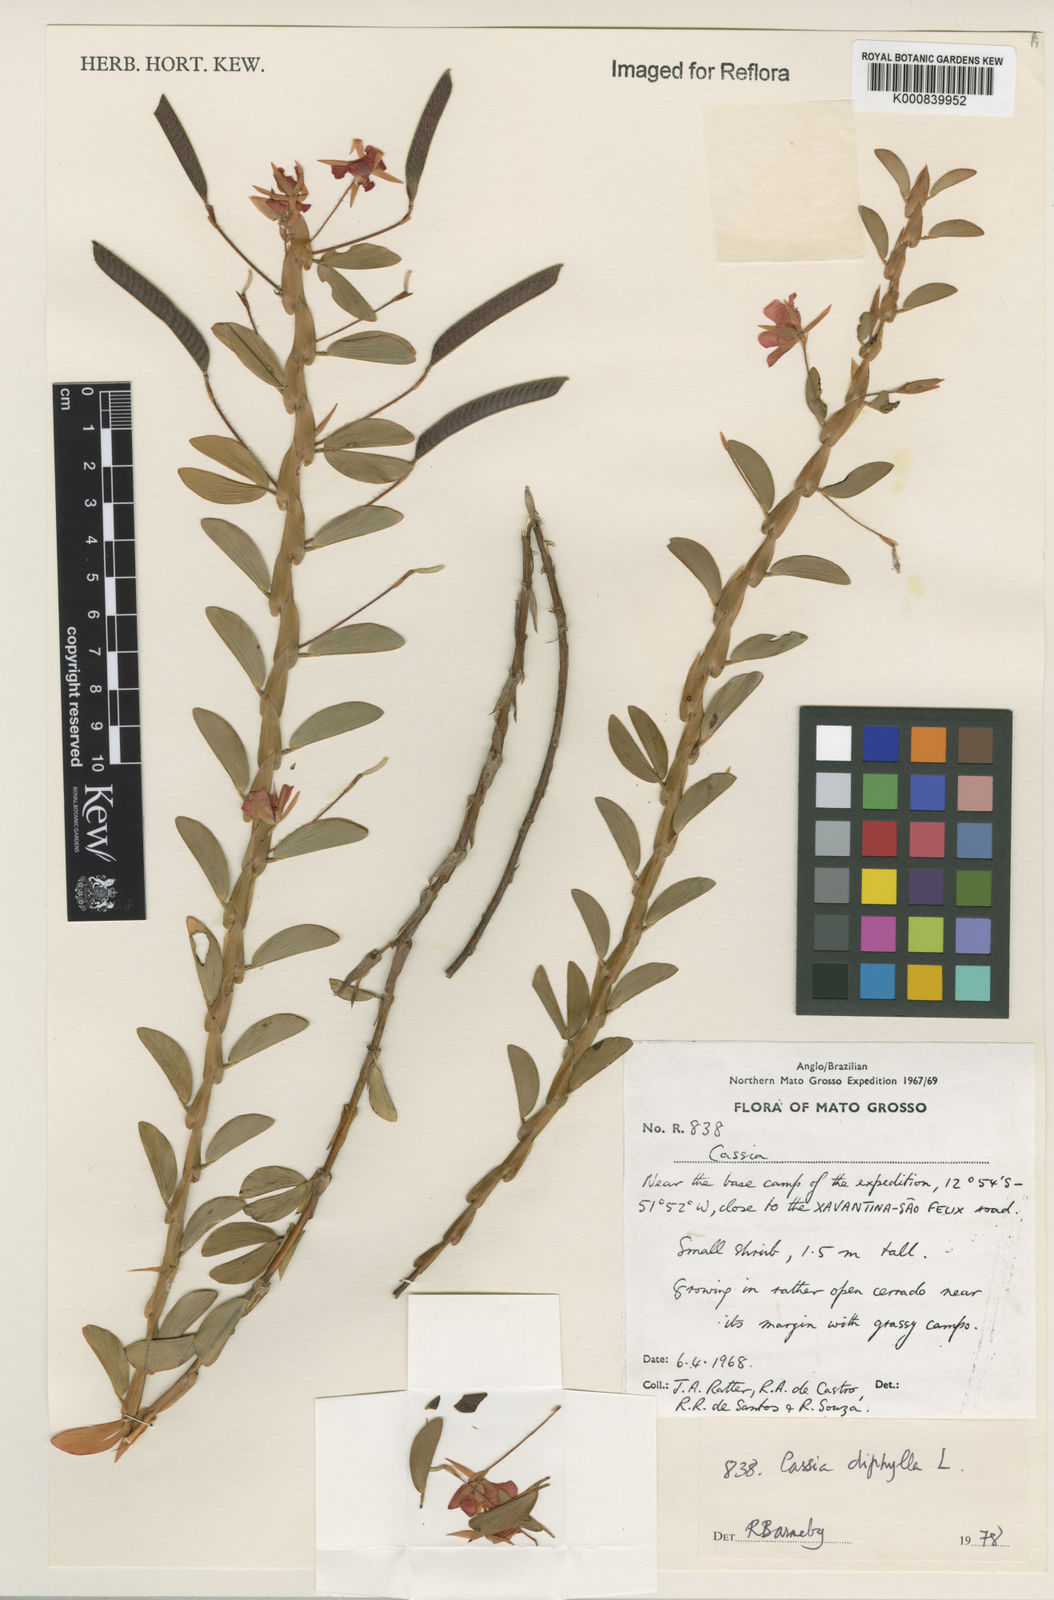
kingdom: Plantae
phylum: Tracheophyta
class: Magnoliopsida
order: Fabales
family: Fabaceae
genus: Chamaecrista
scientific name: Chamaecrista diphylla
